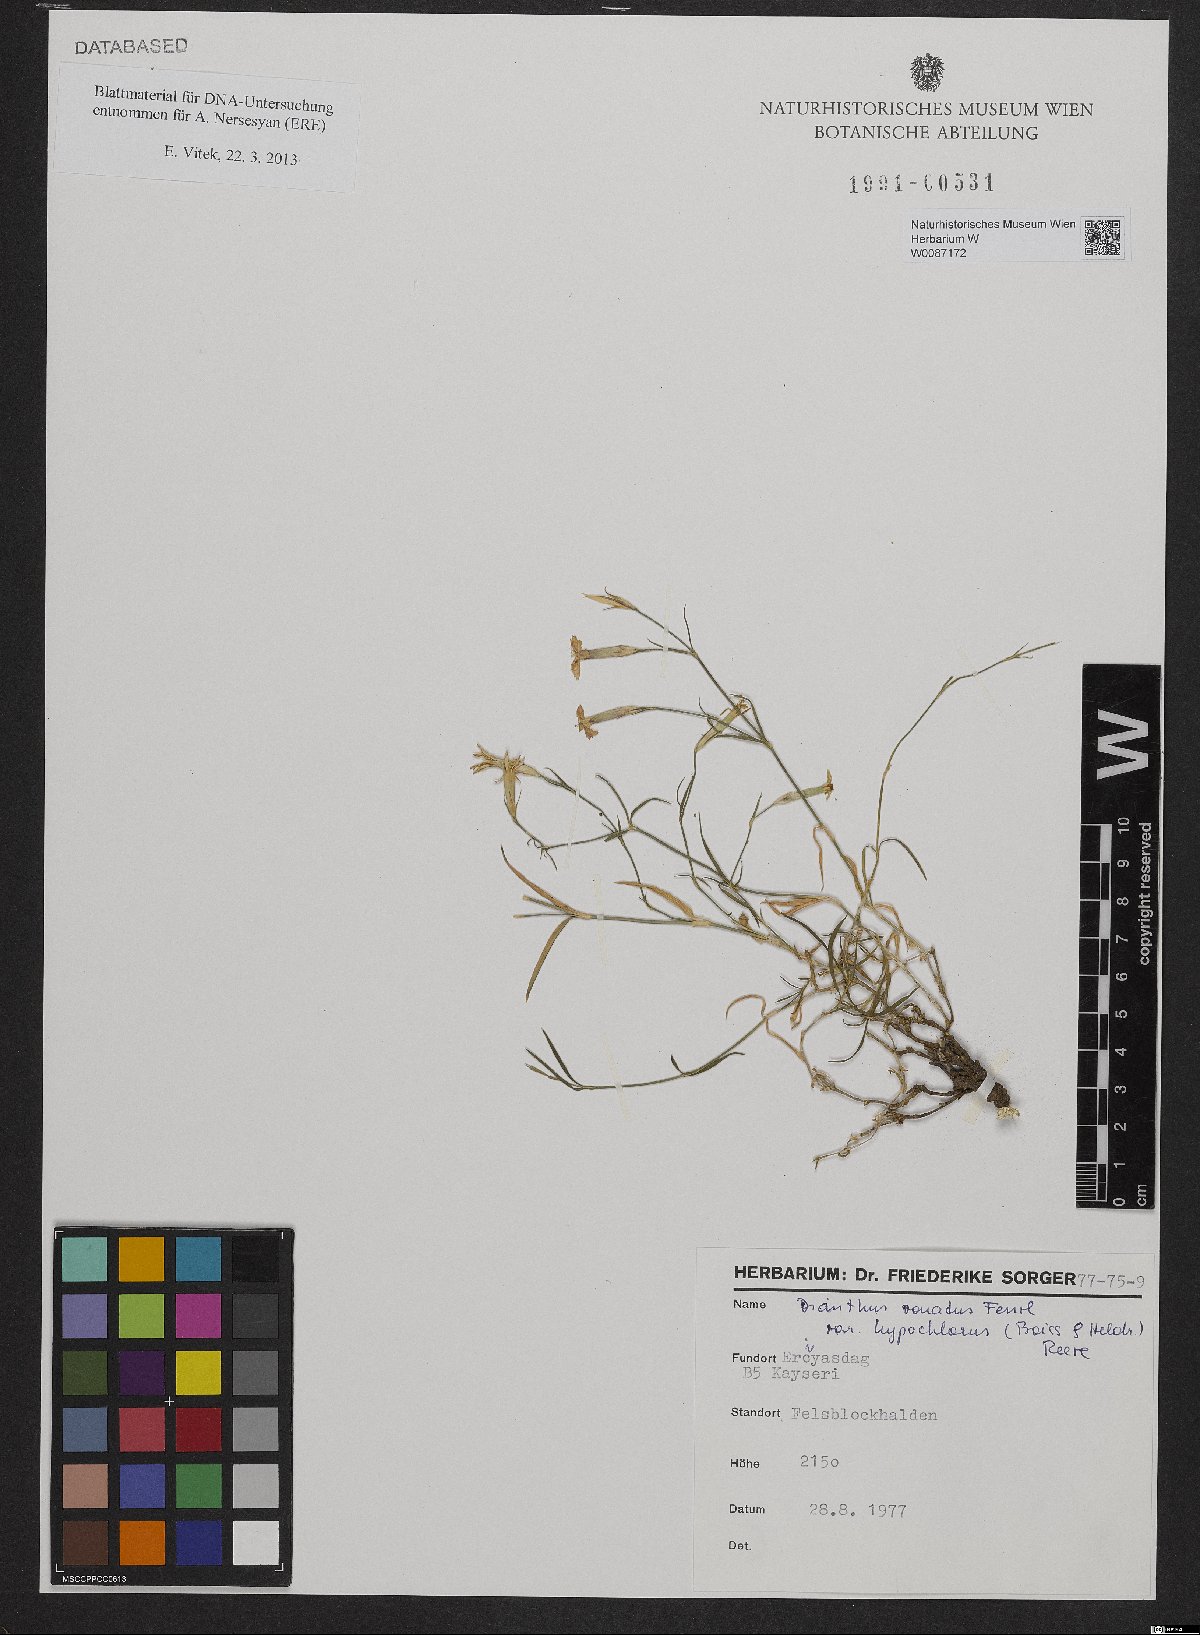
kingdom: Plantae
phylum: Tracheophyta
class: Magnoliopsida
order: Caryophyllales
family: Caryophyllaceae
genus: Dianthus
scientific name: Dianthus zonatus
